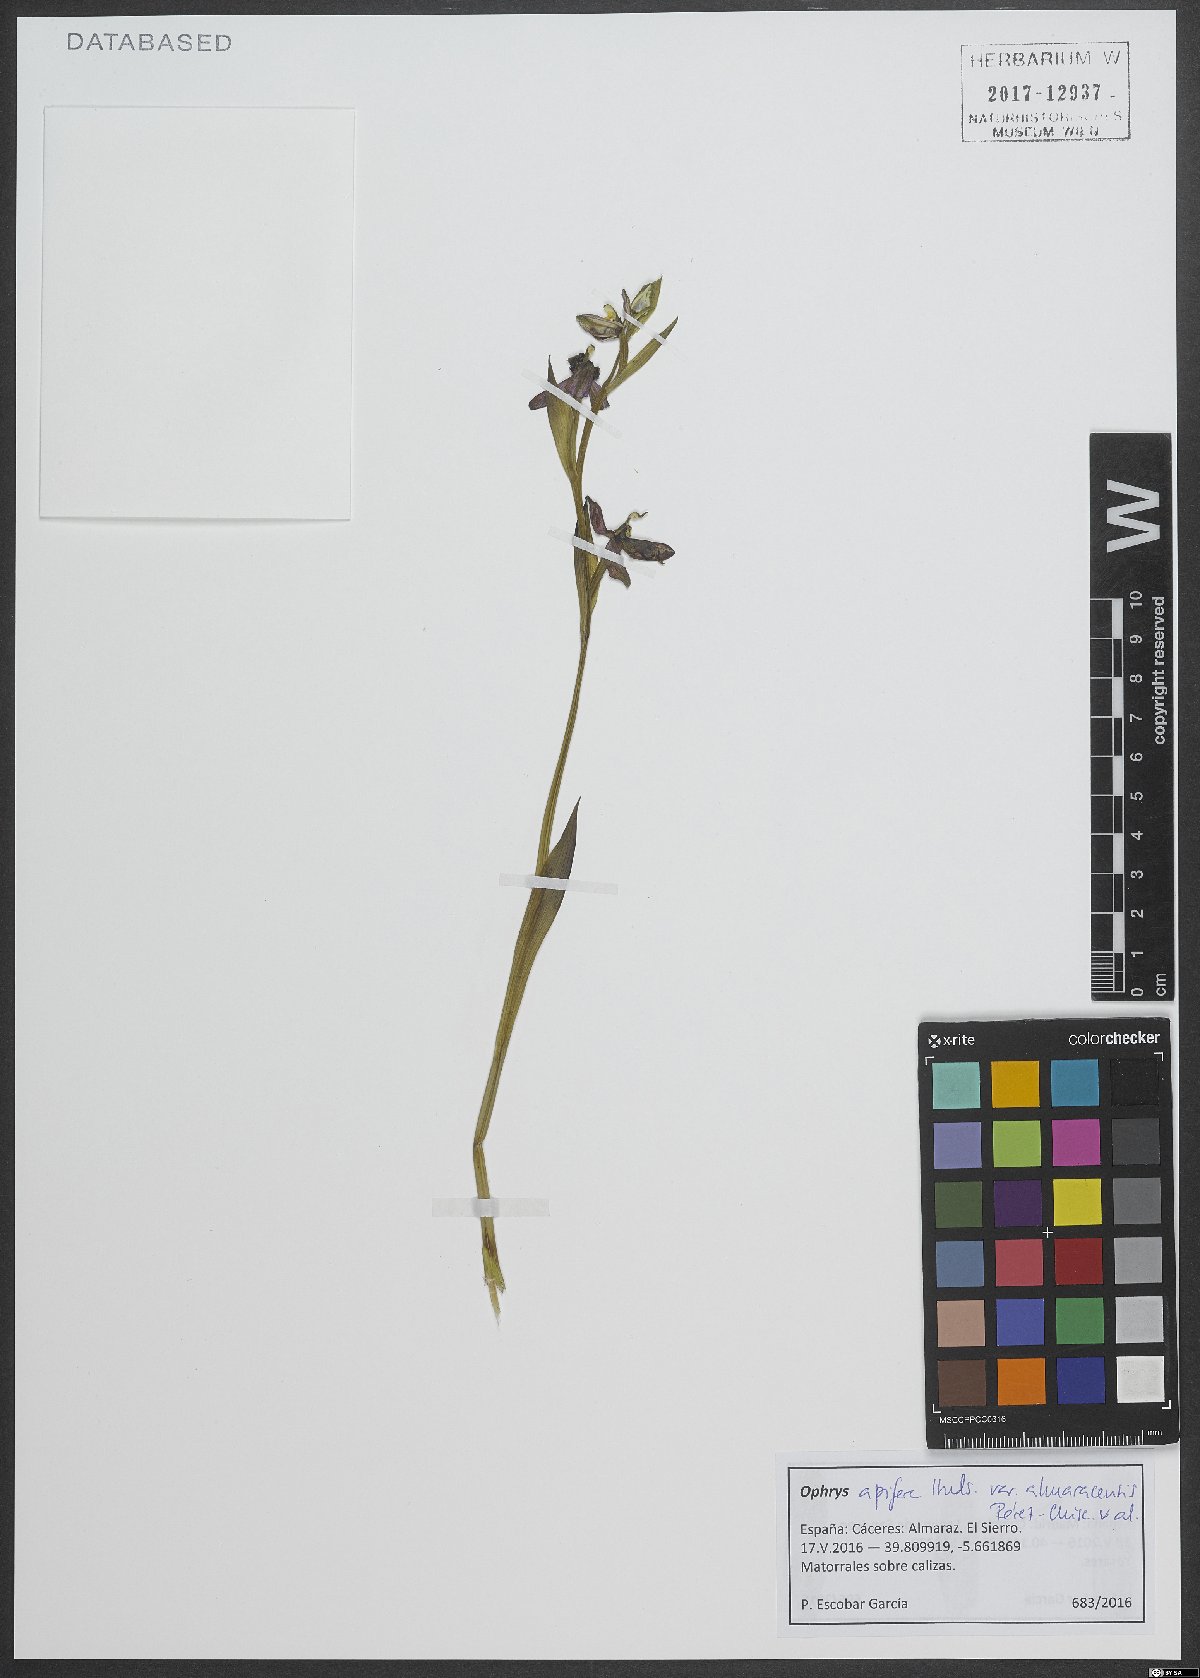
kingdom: Plantae
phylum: Tracheophyta
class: Liliopsida
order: Asparagales
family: Orchidaceae
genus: Ophrys
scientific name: Ophrys apifera
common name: Bee orchid
